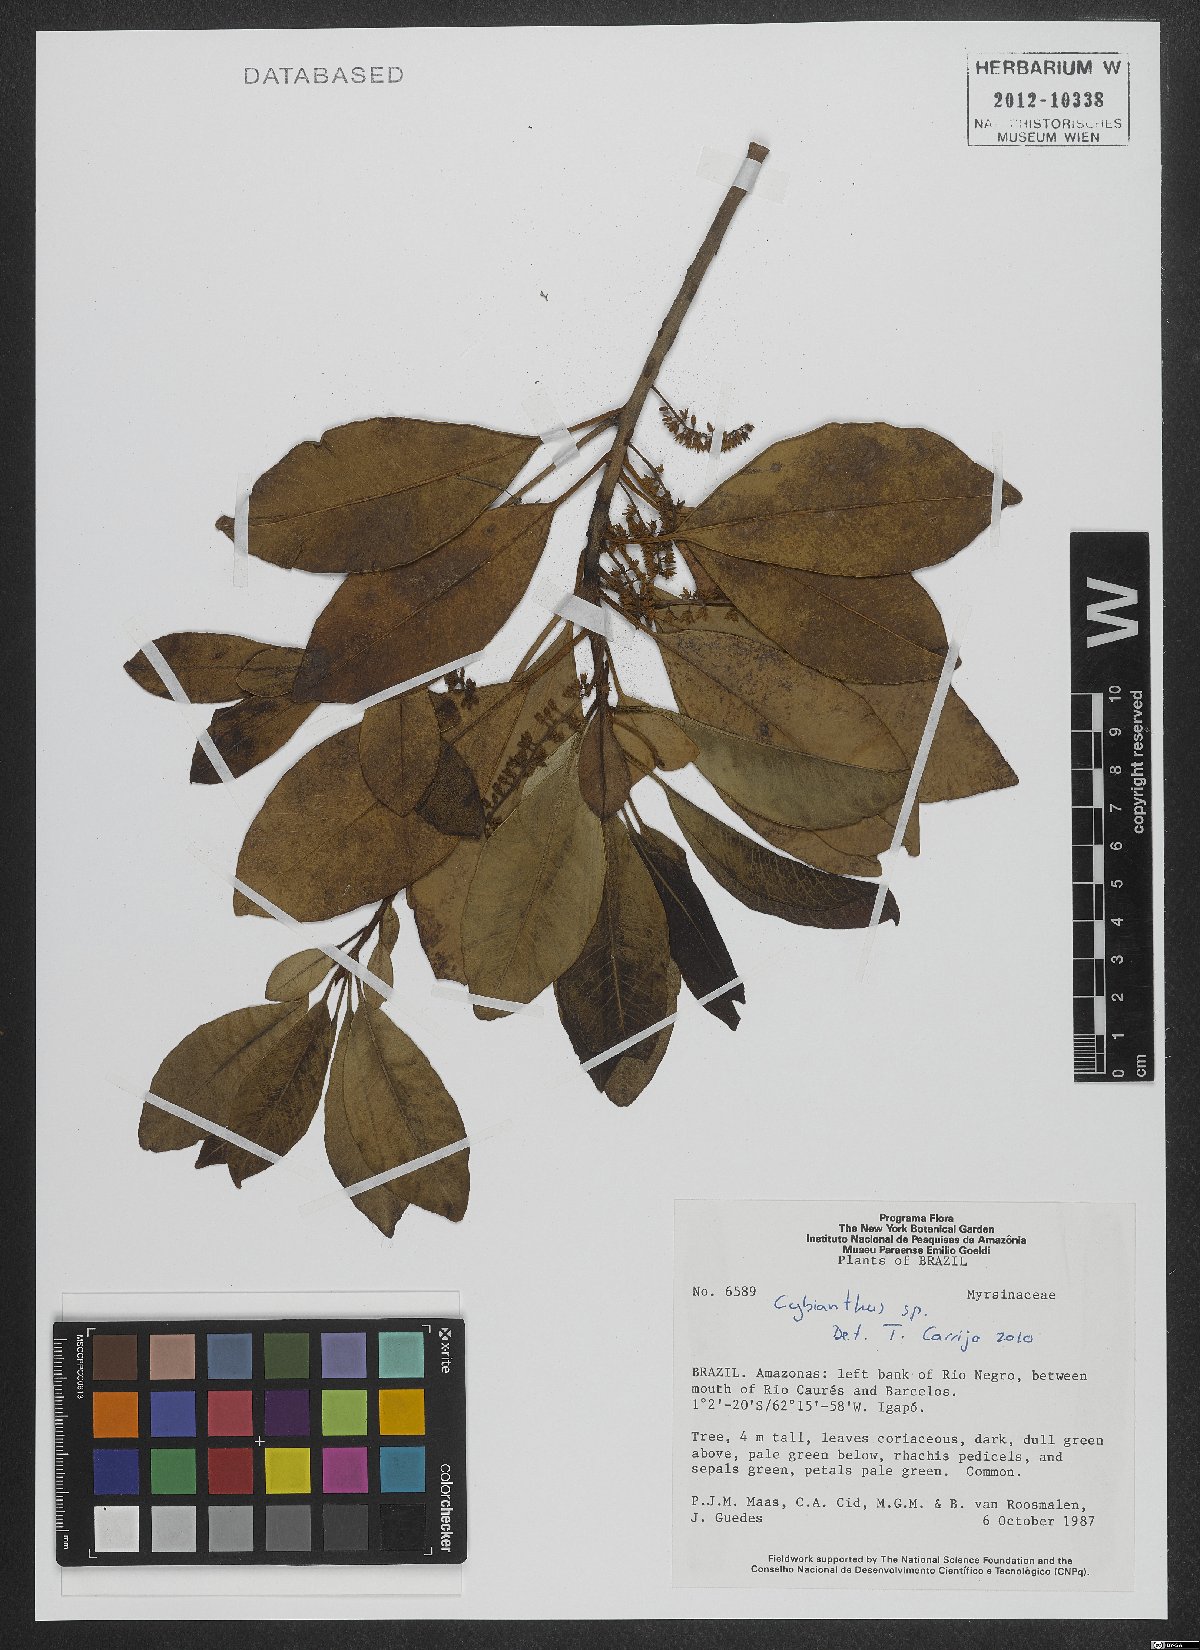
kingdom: Plantae
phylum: Tracheophyta
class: Magnoliopsida
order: Ericales
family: Primulaceae
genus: Cybianthus
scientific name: Cybianthus
